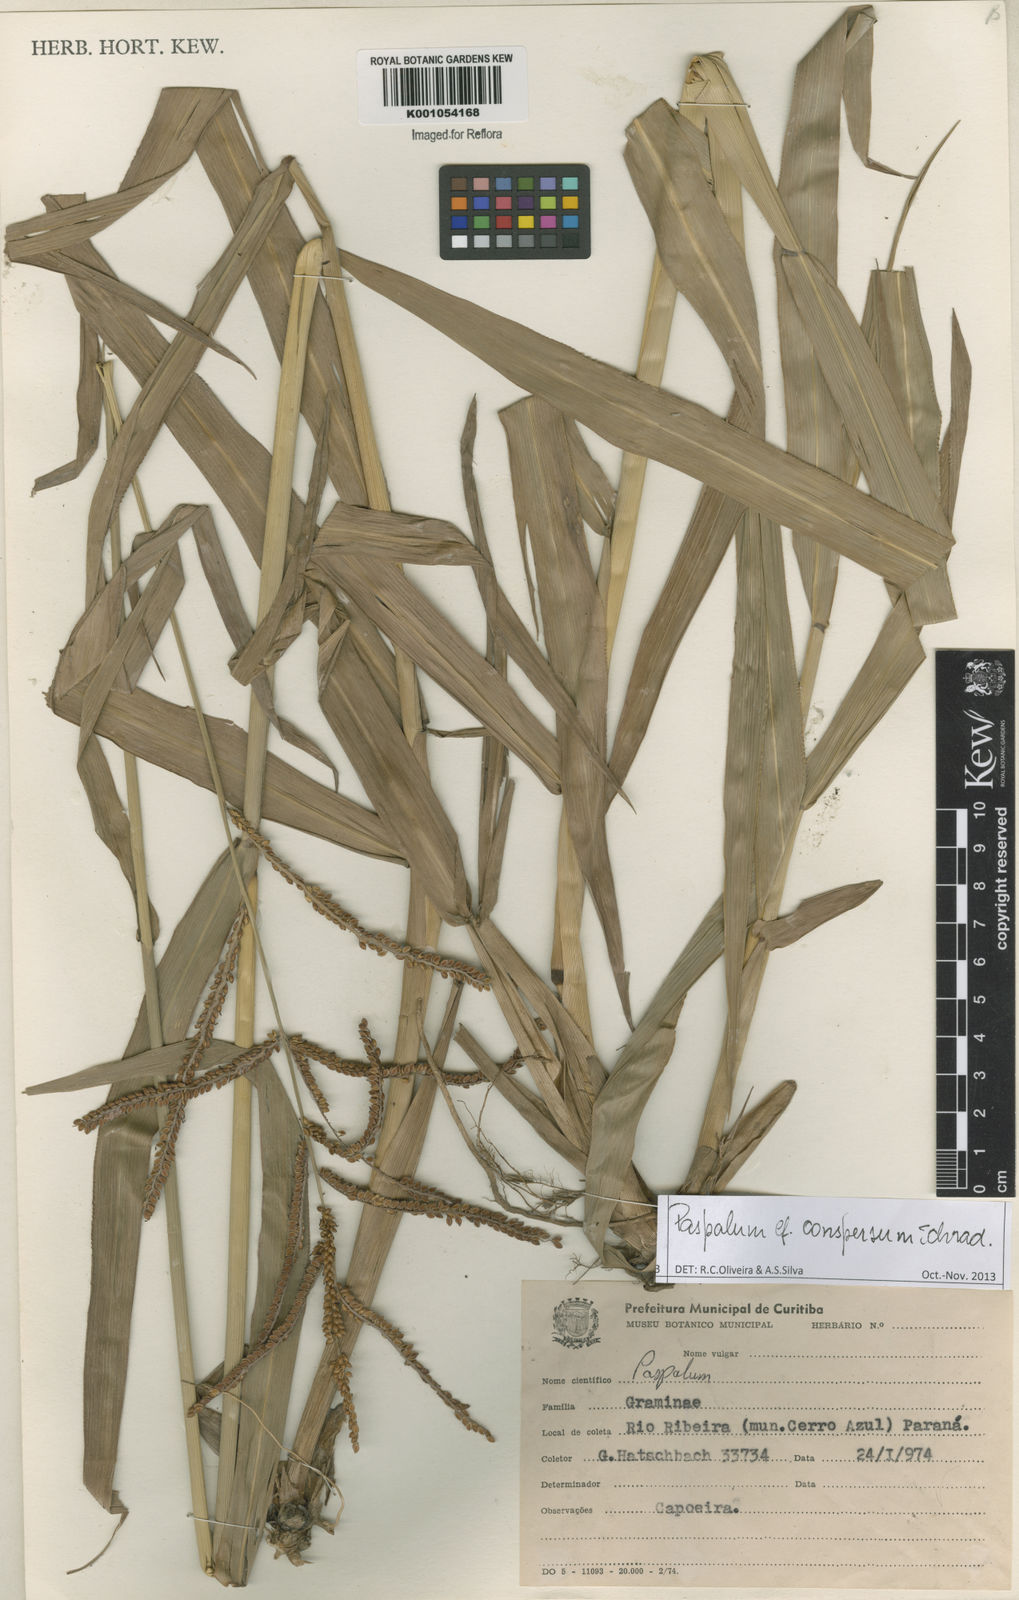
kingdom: Plantae
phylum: Tracheophyta
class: Liliopsida
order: Poales
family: Poaceae
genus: Paspalum
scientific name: Paspalum conspersum
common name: Scattered paspalum
